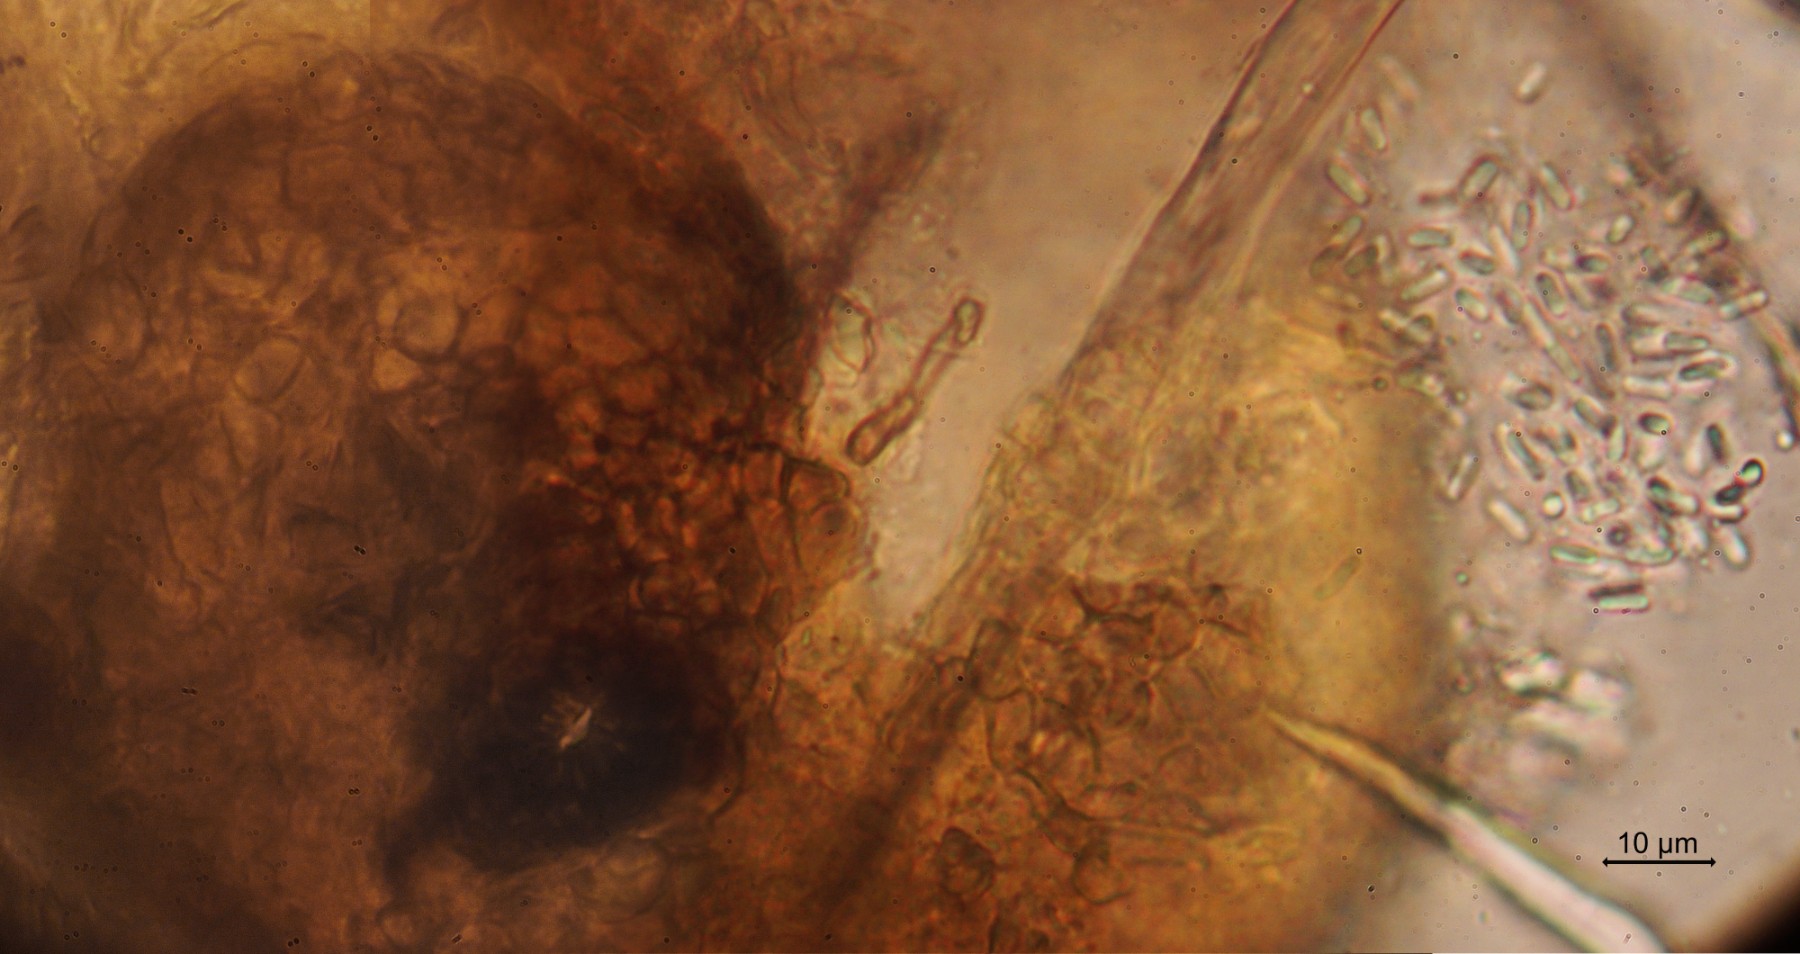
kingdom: Fungi
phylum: Ascomycota
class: Dothideomycetes
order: Botryosphaeriales
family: Phyllostictaceae
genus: Phyllosticta
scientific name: Phyllosticta hieracii
